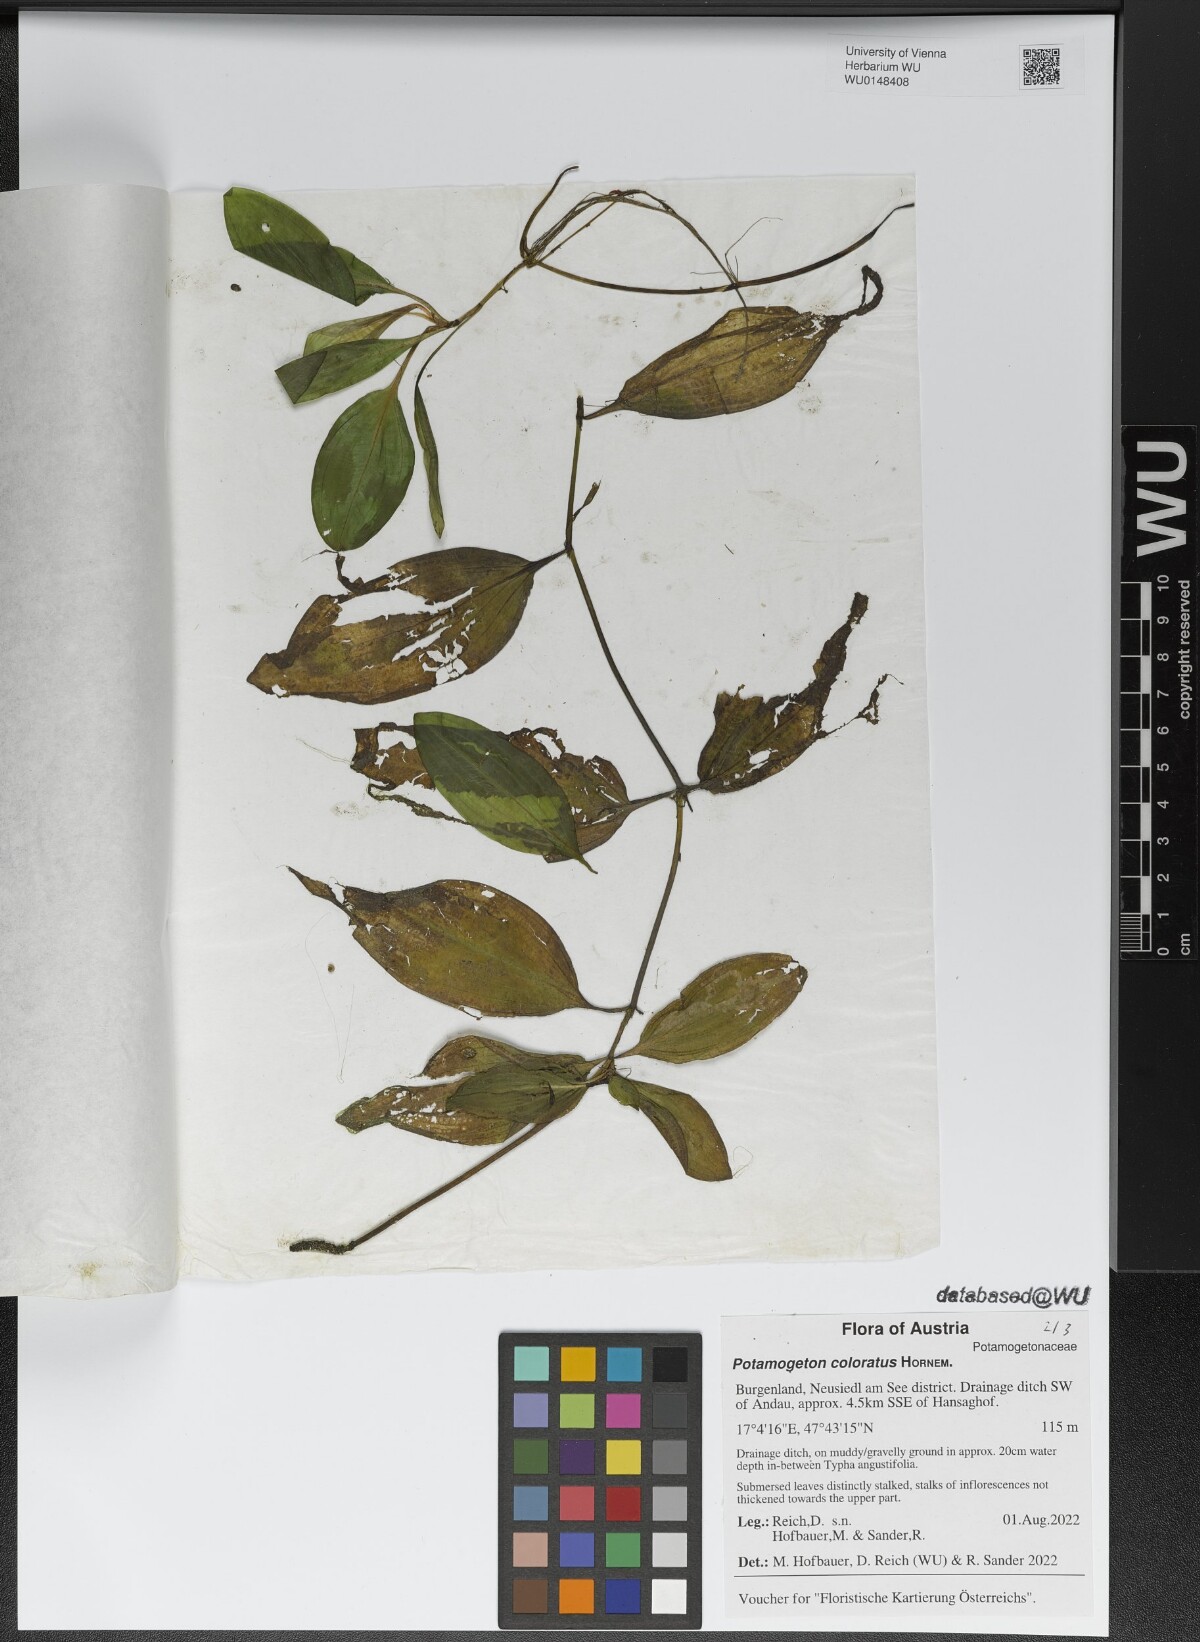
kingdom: Plantae
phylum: Tracheophyta
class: Liliopsida
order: Alismatales
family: Potamogetonaceae
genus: Potamogeton
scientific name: Potamogeton coloratus
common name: Fen pondweed
